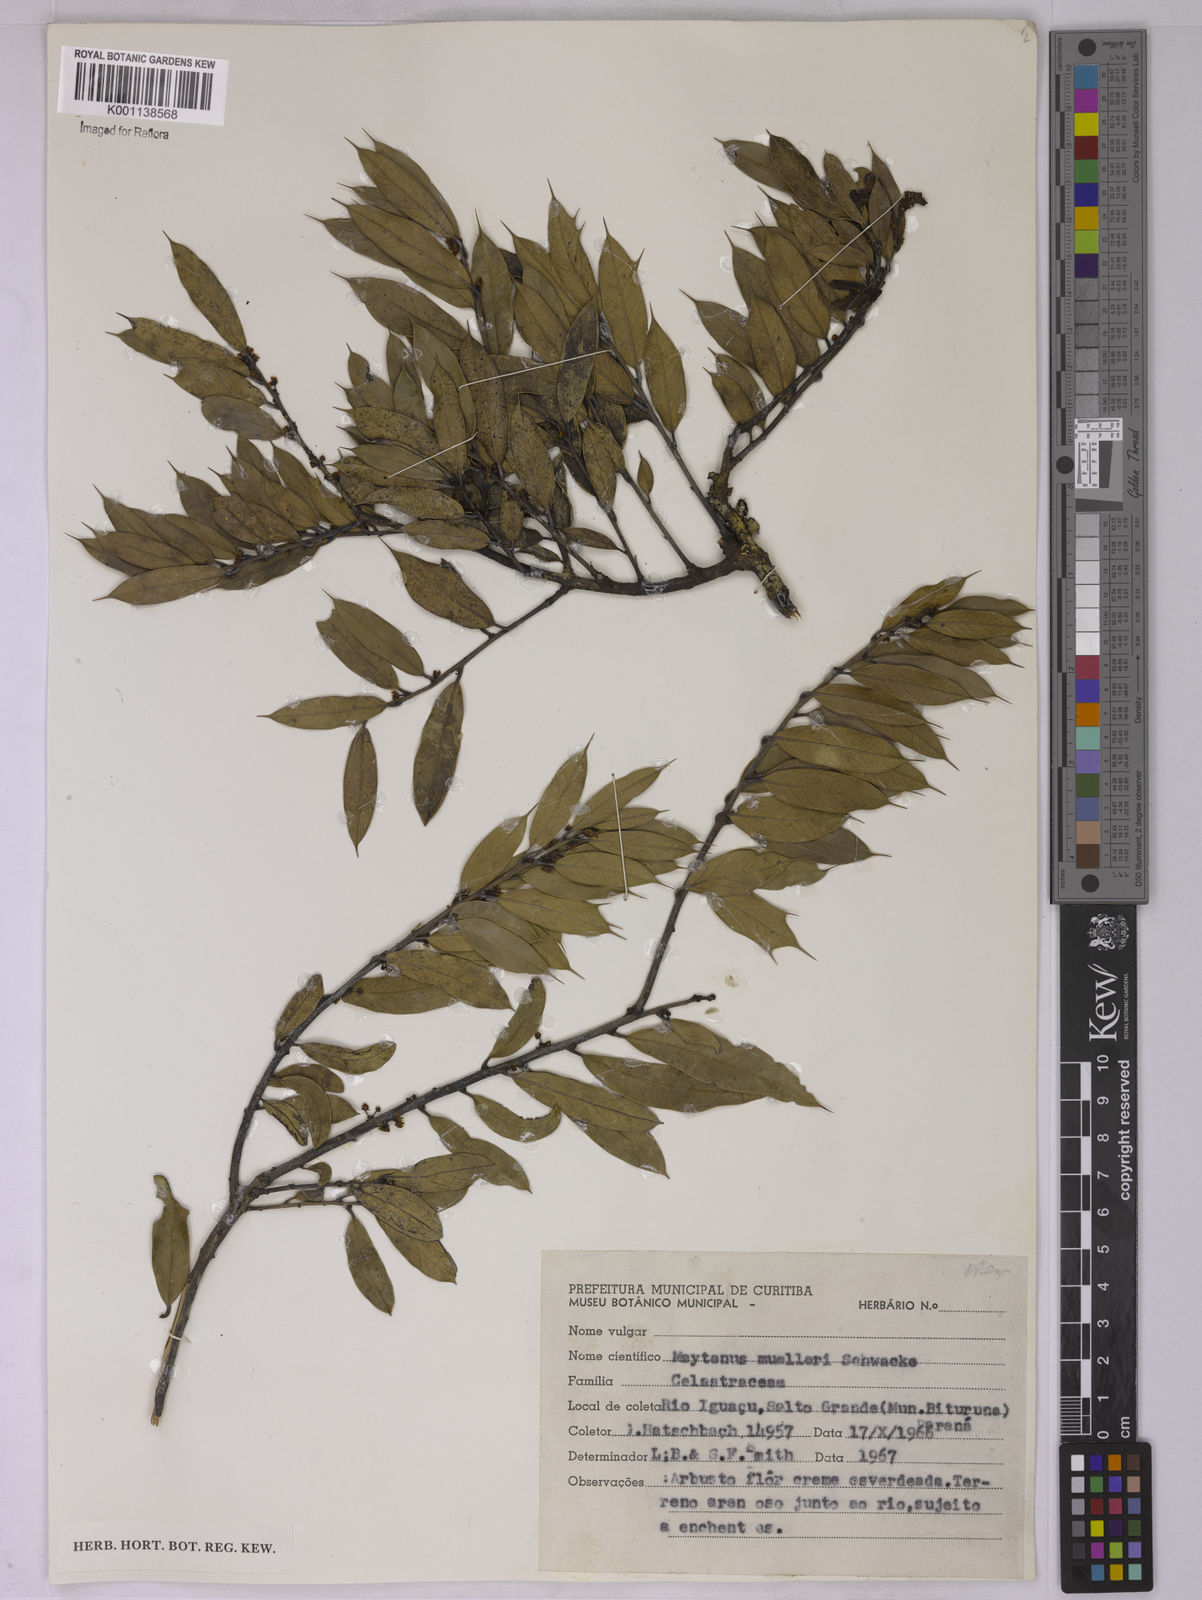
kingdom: Plantae
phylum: Tracheophyta
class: Magnoliopsida
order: Celastrales
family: Celastraceae
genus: Monteverdia
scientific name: Monteverdia ilicifolia
